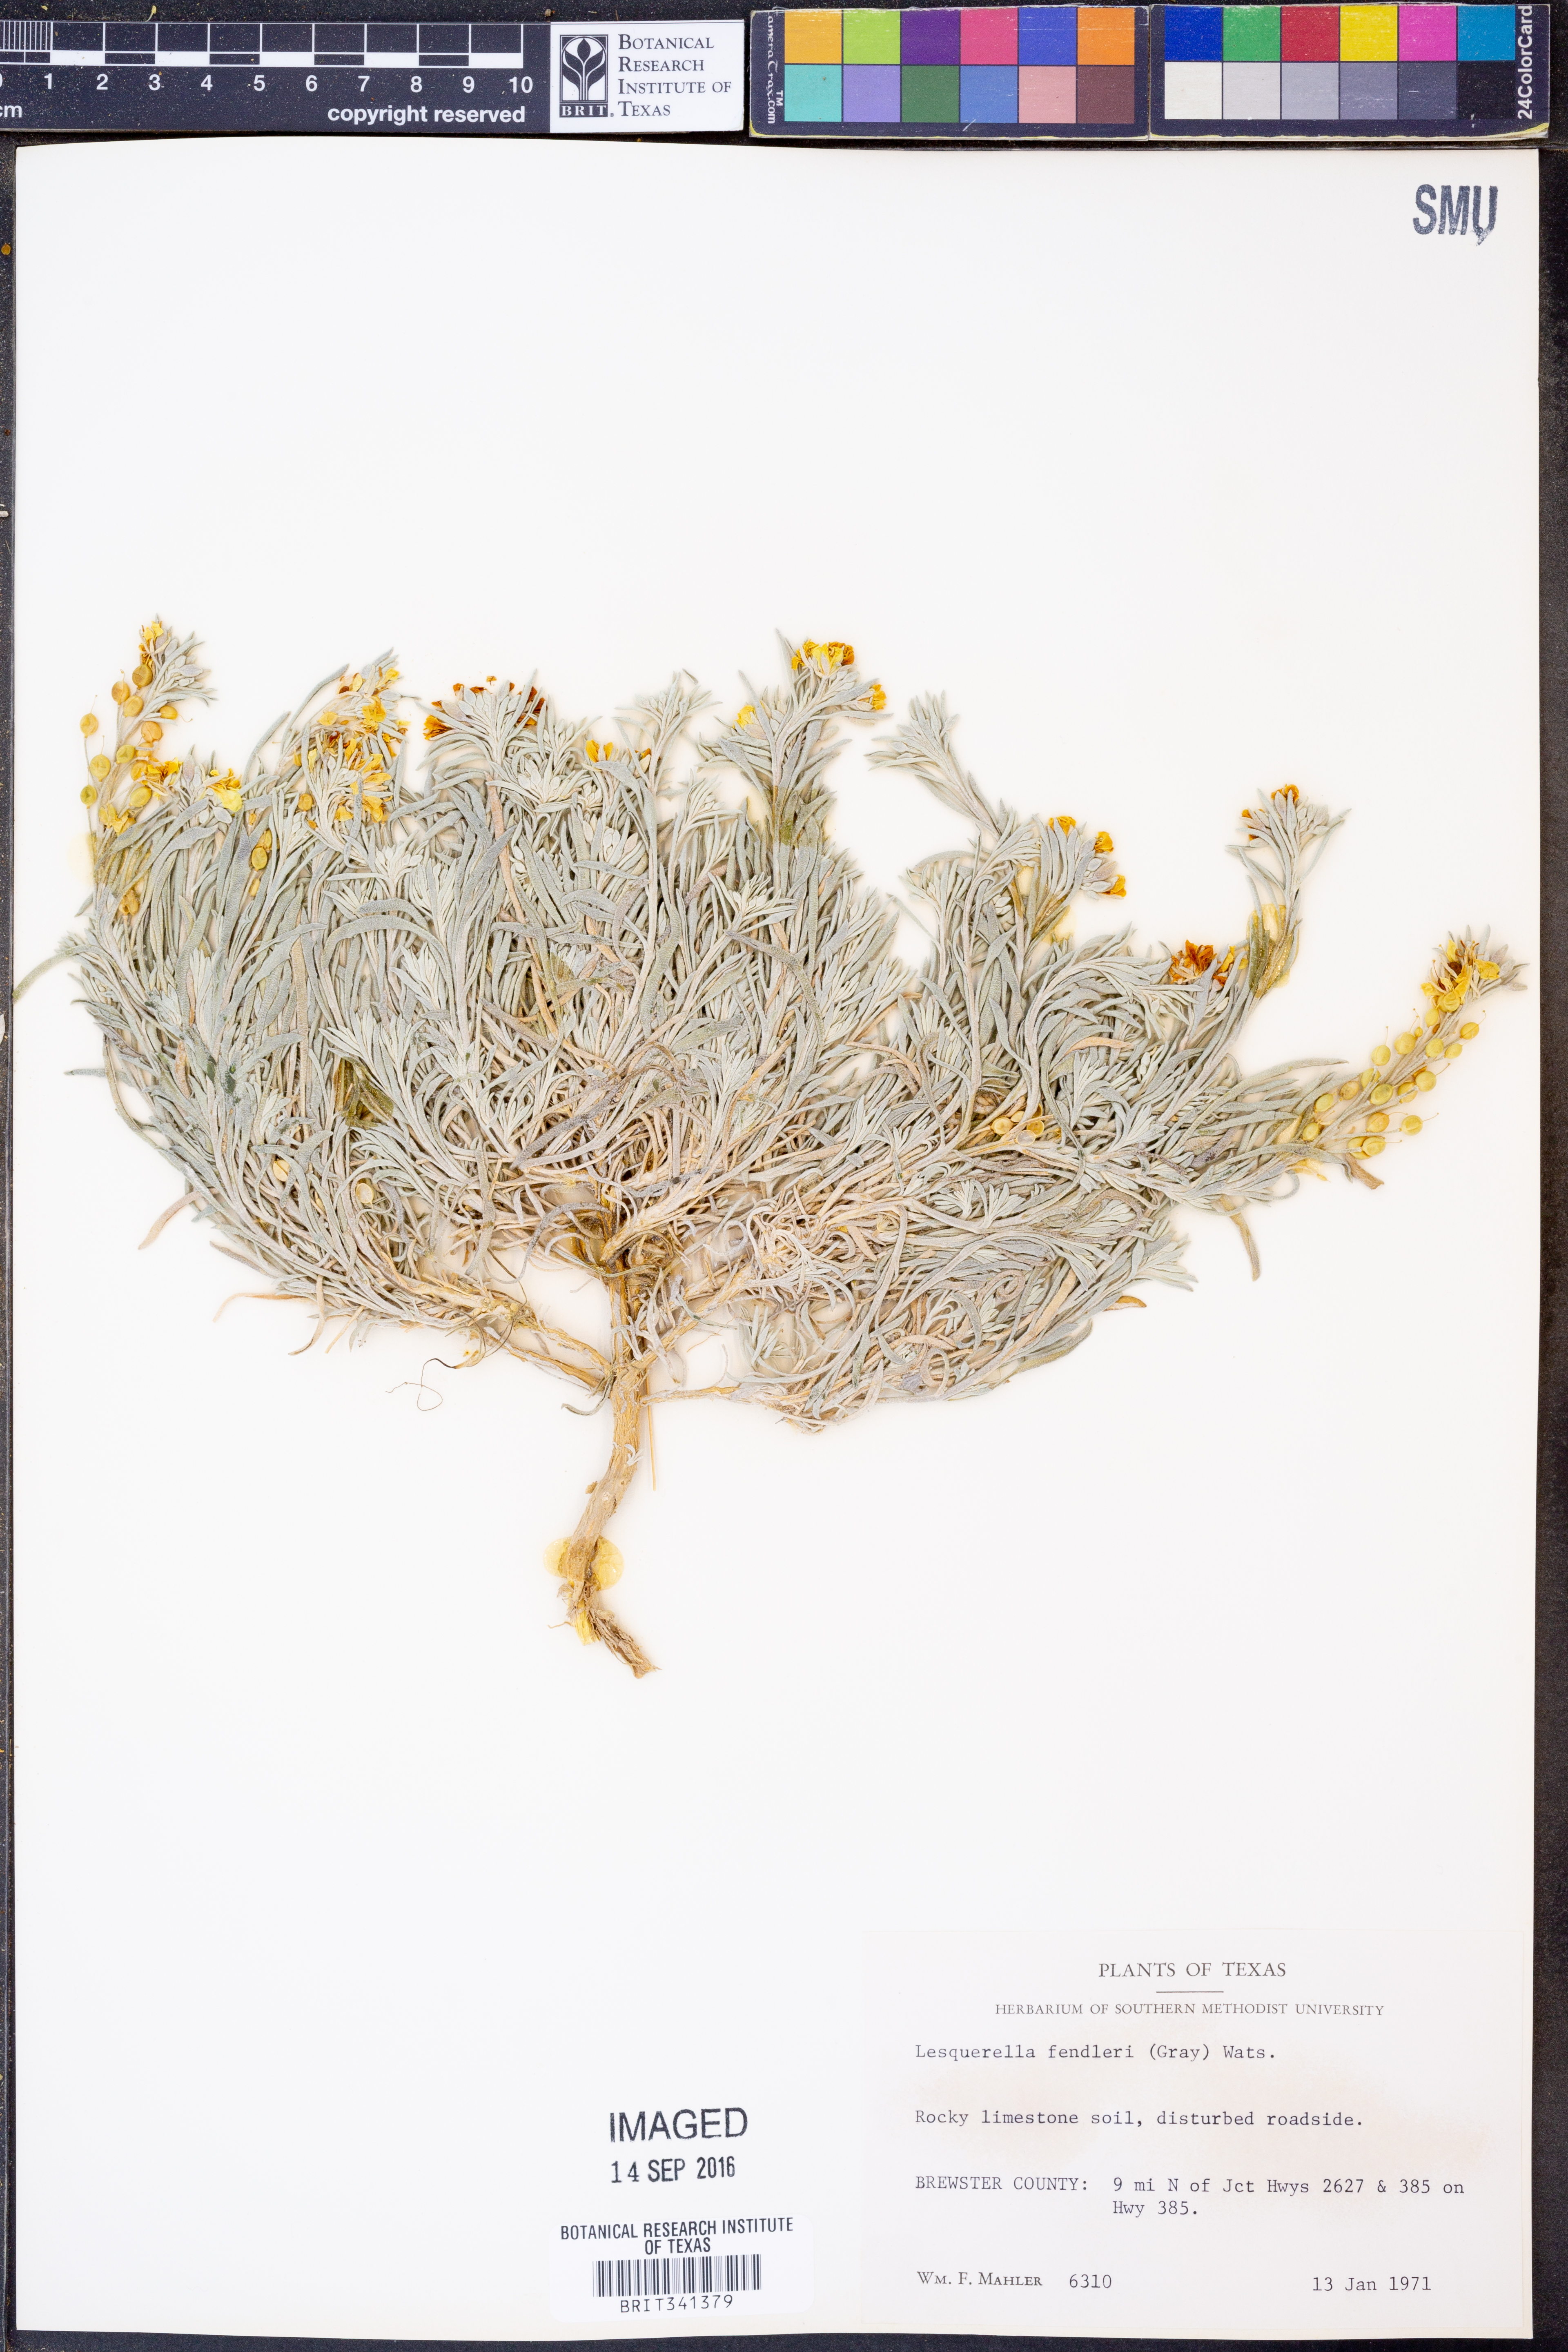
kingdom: Plantae
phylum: Tracheophyta
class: Magnoliopsida
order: Brassicales
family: Brassicaceae
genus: Physaria
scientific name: Physaria fendleri
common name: Fendler's bladderpod
